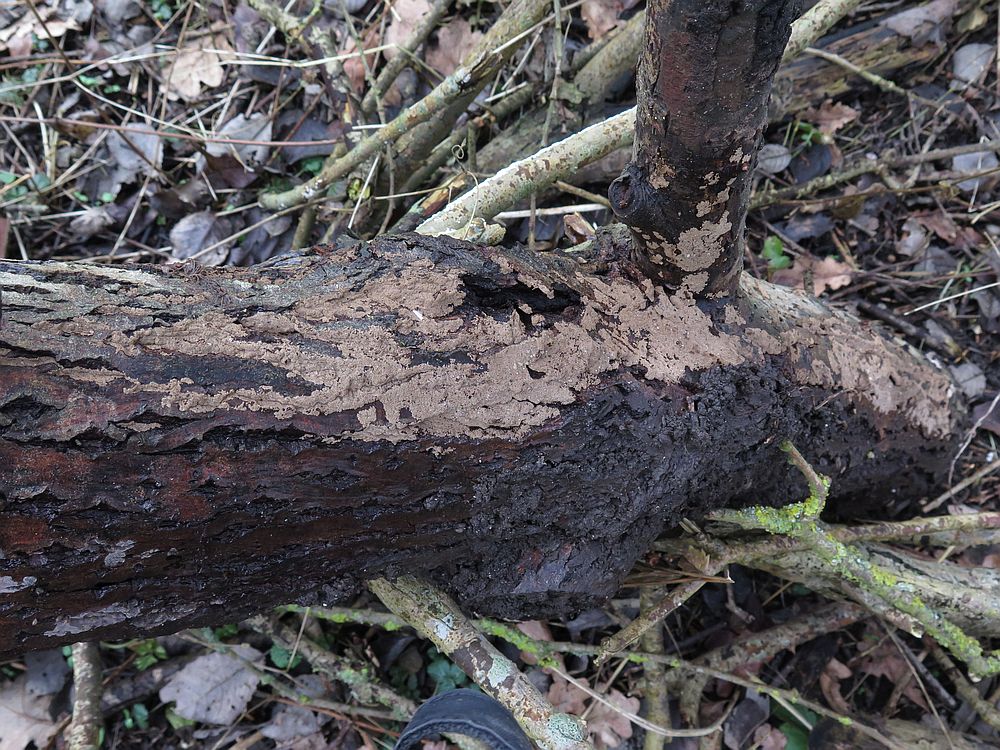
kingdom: Fungi
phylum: Basidiomycota
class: Agaricomycetes
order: Agaricales
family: Niaceae
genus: Merismodes
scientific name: Merismodes anomala
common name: almindelig læderskål
